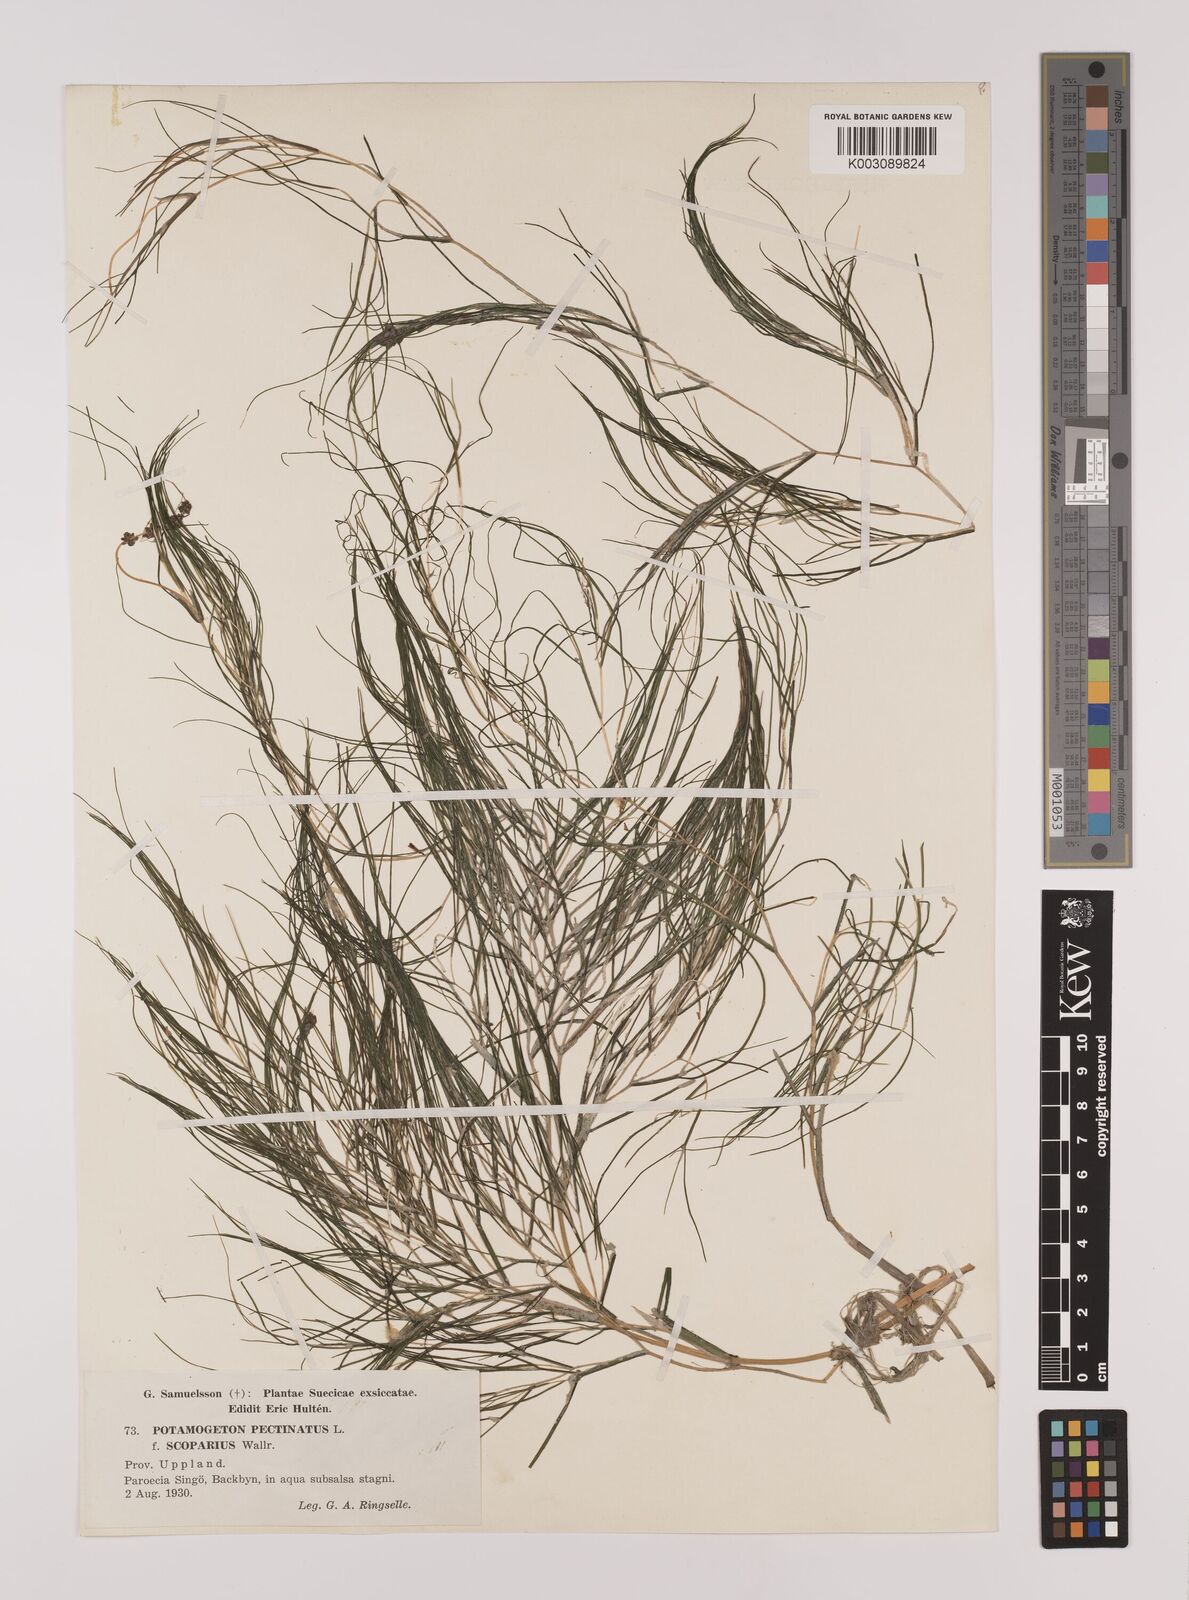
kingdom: Plantae
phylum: Tracheophyta
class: Liliopsida
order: Alismatales
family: Potamogetonaceae
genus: Stuckenia
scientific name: Stuckenia pectinata
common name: Sago pondweed
